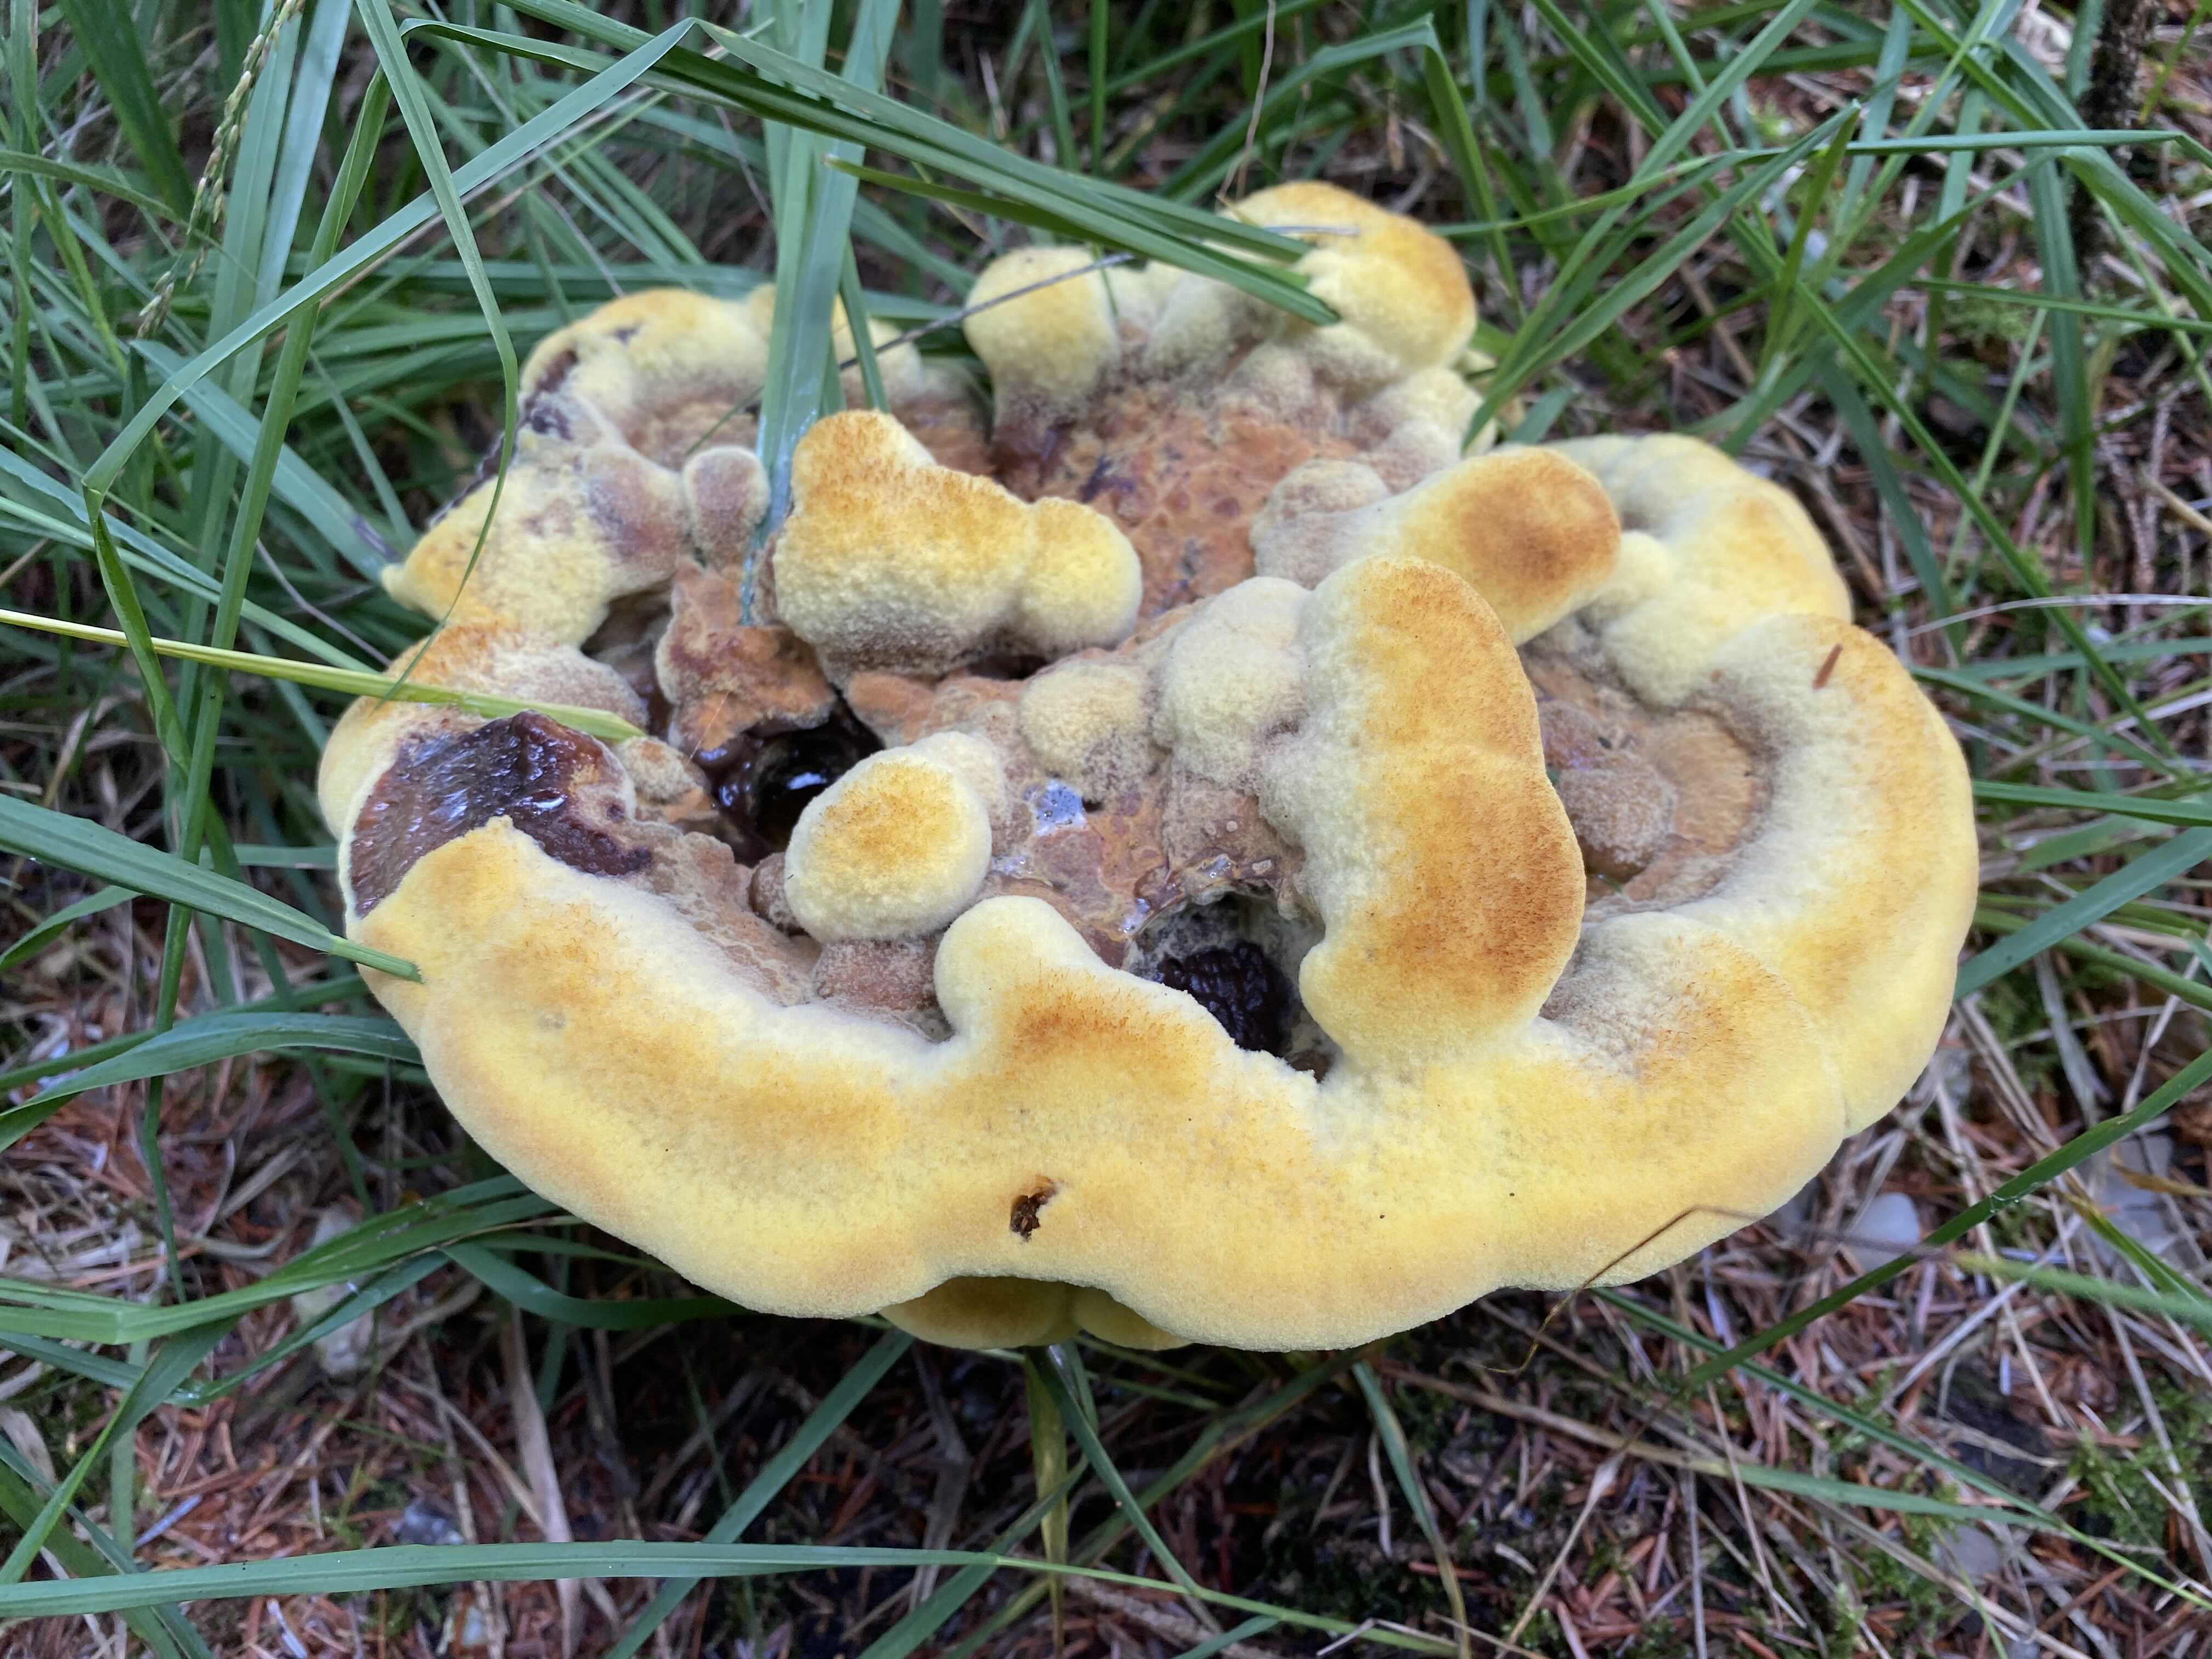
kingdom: Fungi
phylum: Basidiomycota
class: Agaricomycetes
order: Polyporales
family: Laetiporaceae
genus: Phaeolus
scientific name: Phaeolus schweinitzii
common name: brunporesvamp
